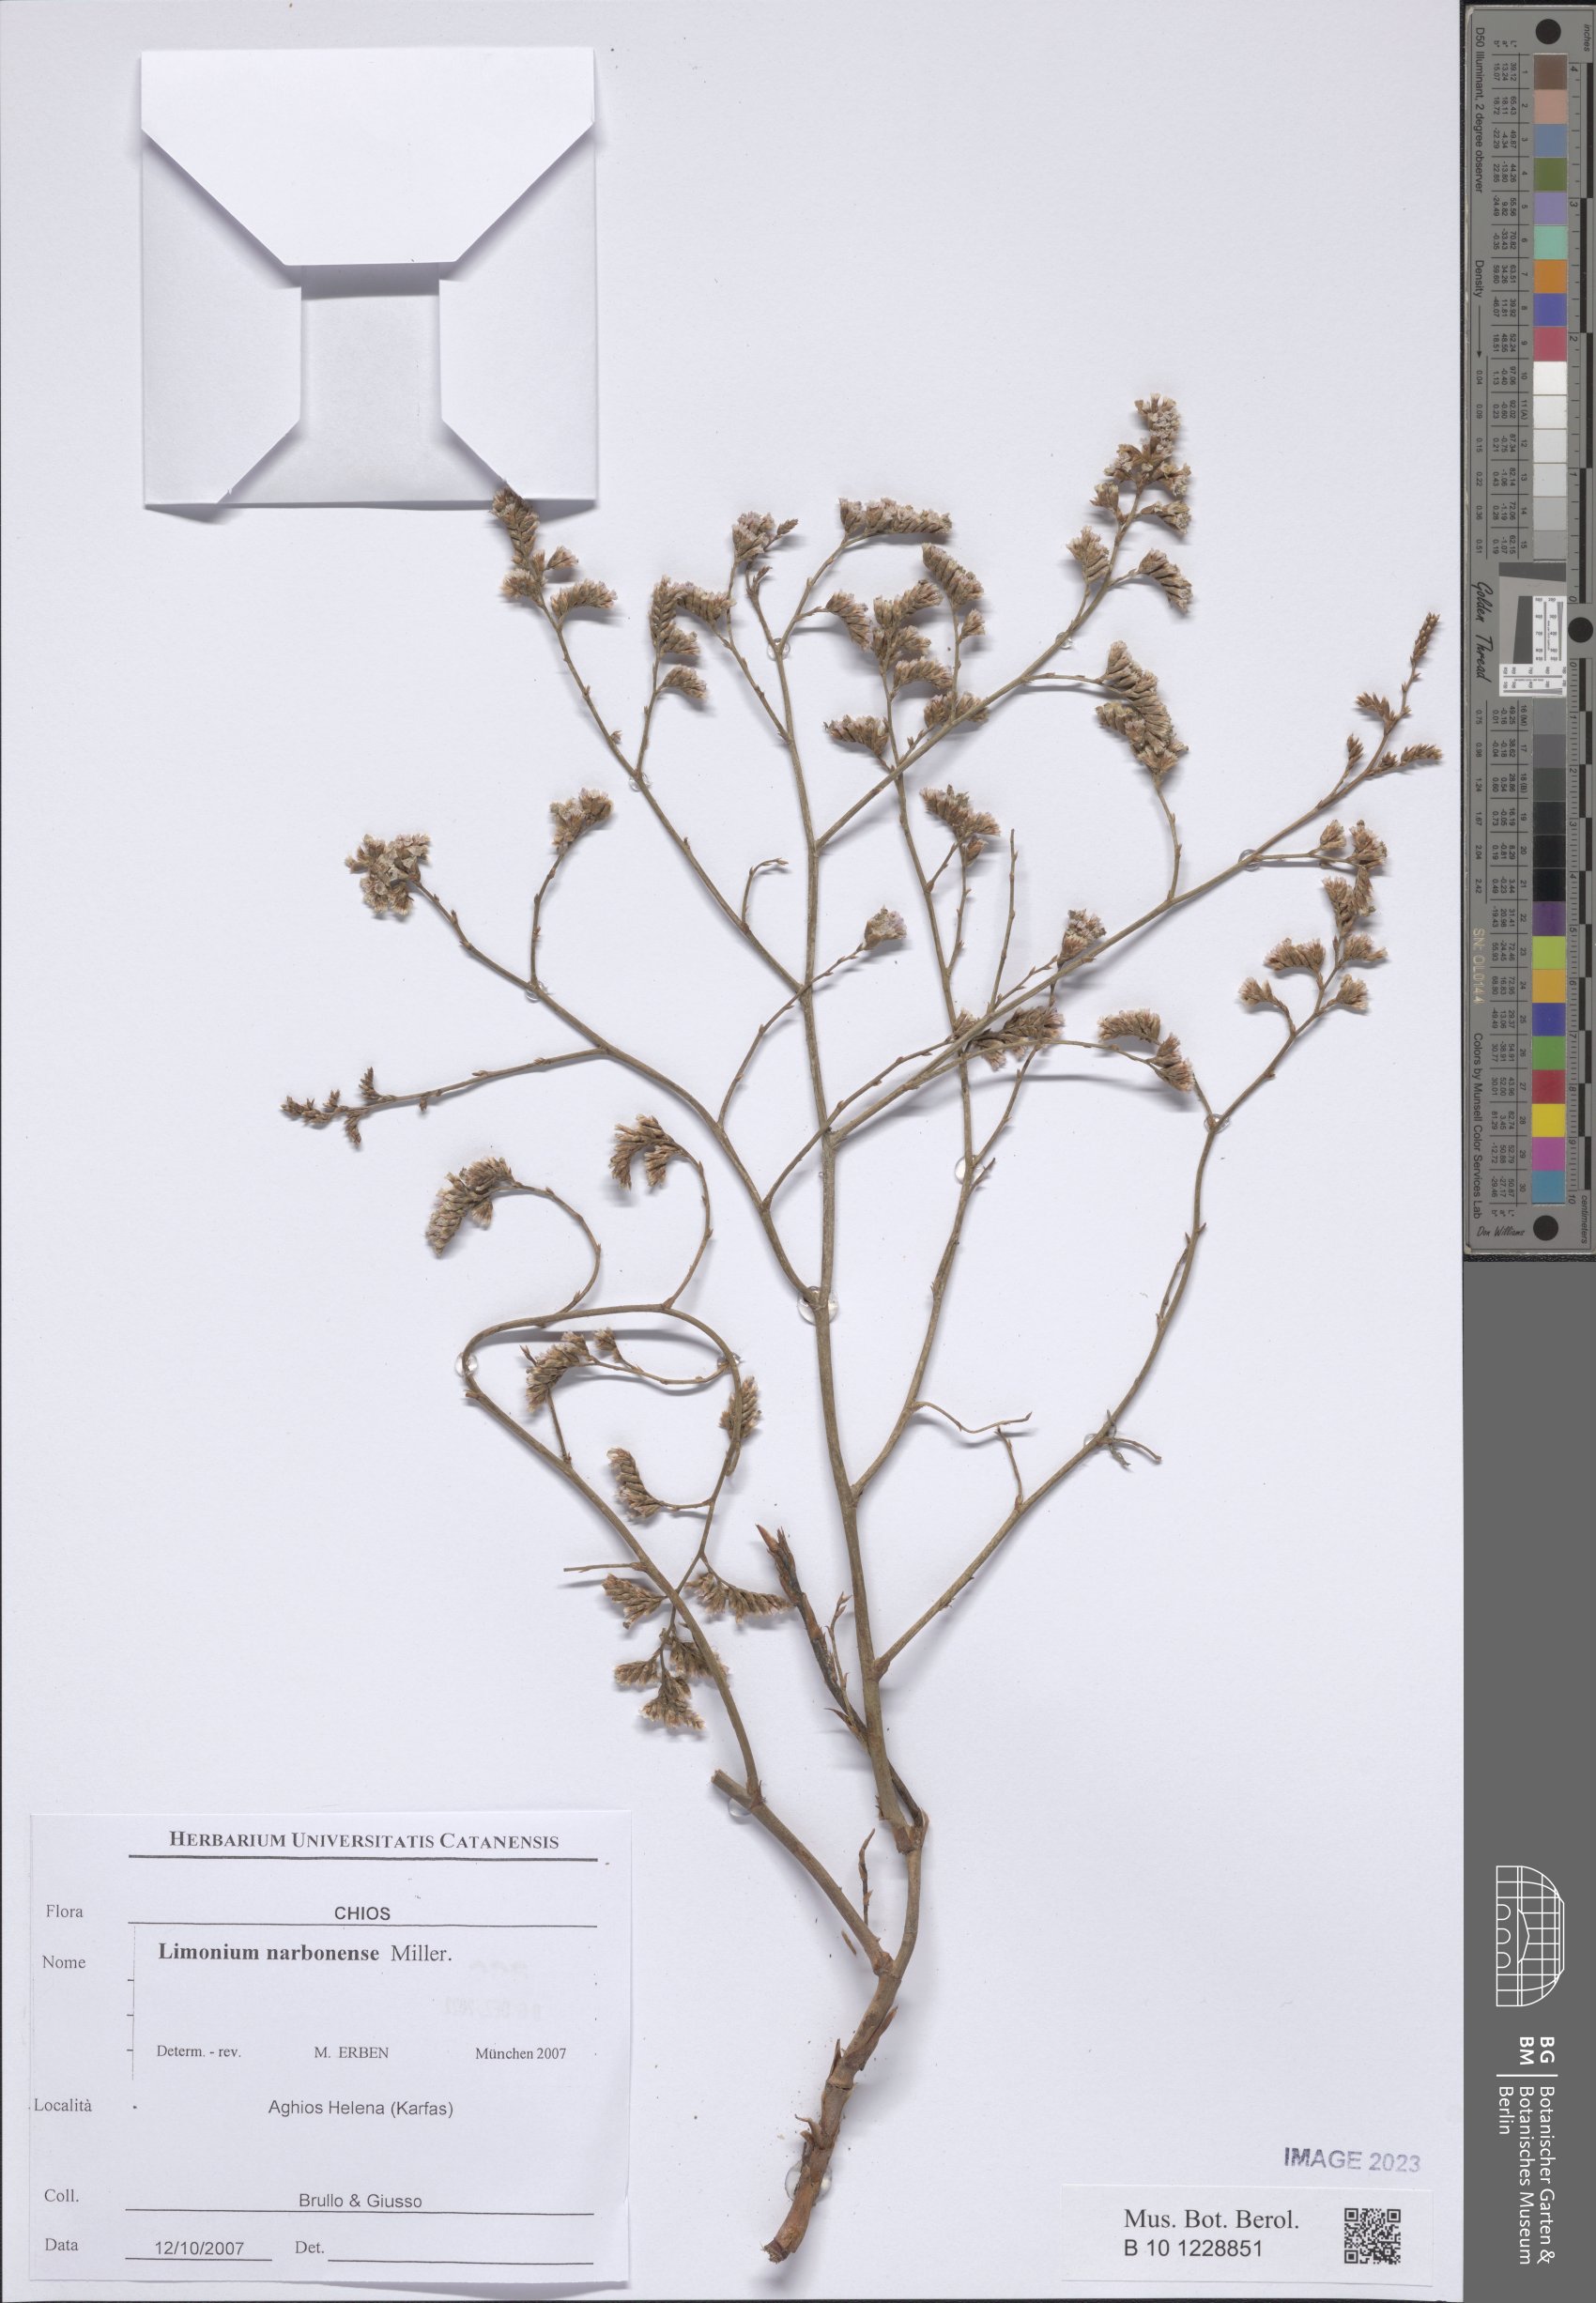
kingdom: Plantae
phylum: Tracheophyta
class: Magnoliopsida
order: Caryophyllales
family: Plumbaginaceae
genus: Limonium
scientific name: Limonium narbonense
